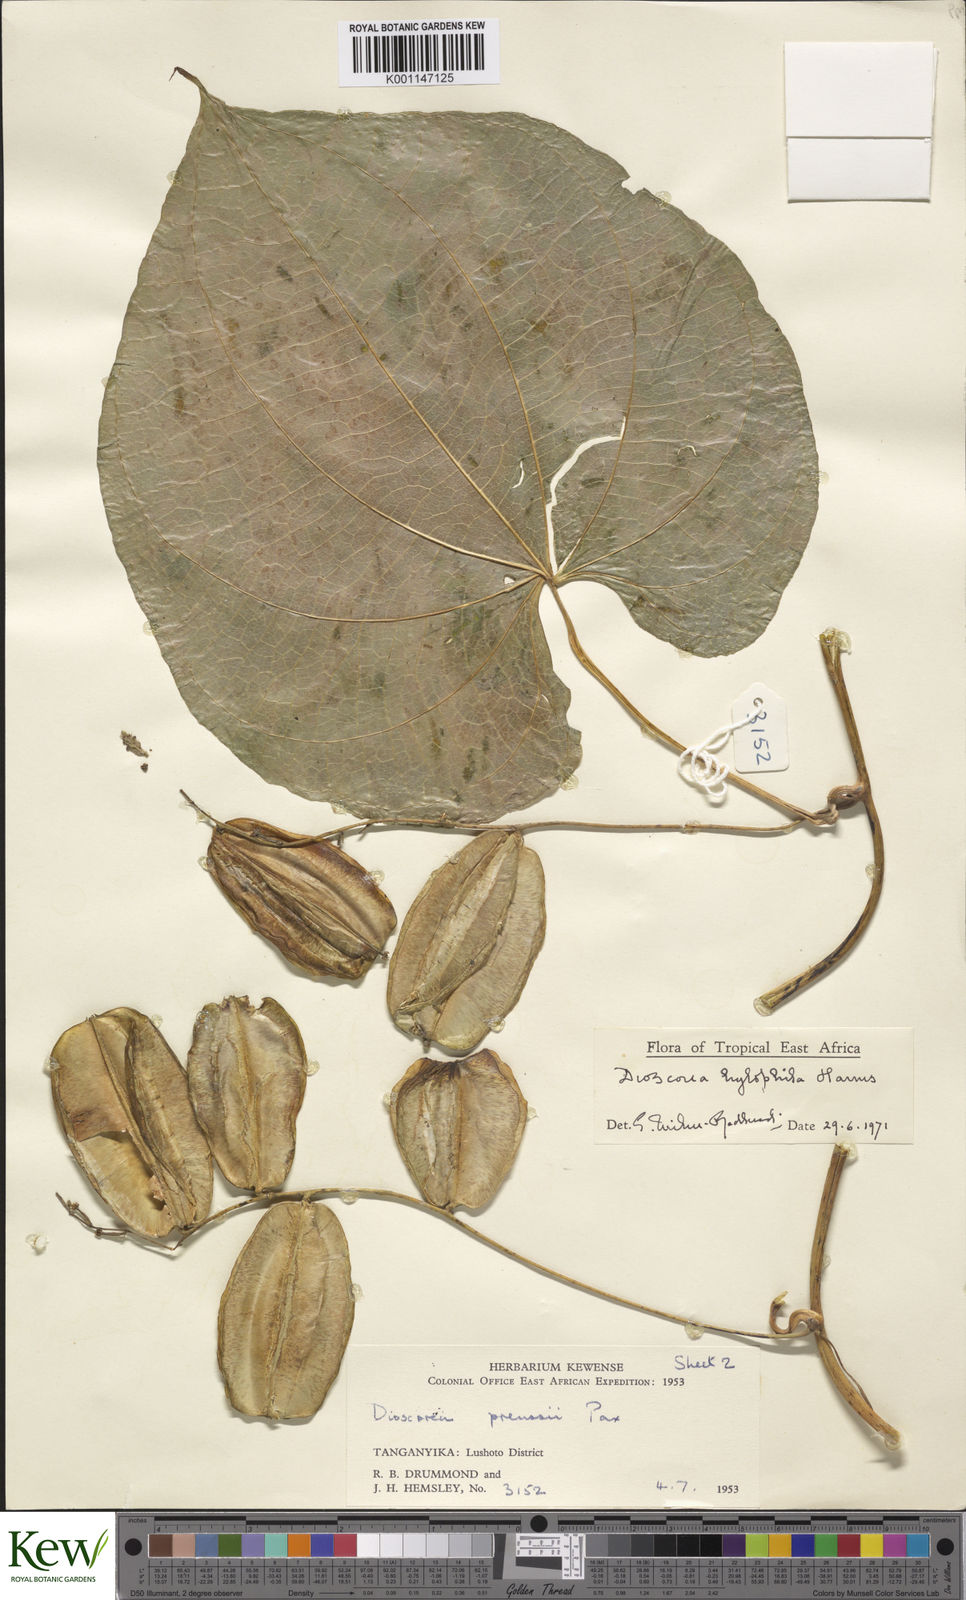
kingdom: Plantae
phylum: Tracheophyta
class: Liliopsida
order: Dioscoreales
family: Dioscoreaceae
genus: Dioscorea
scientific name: Dioscorea
